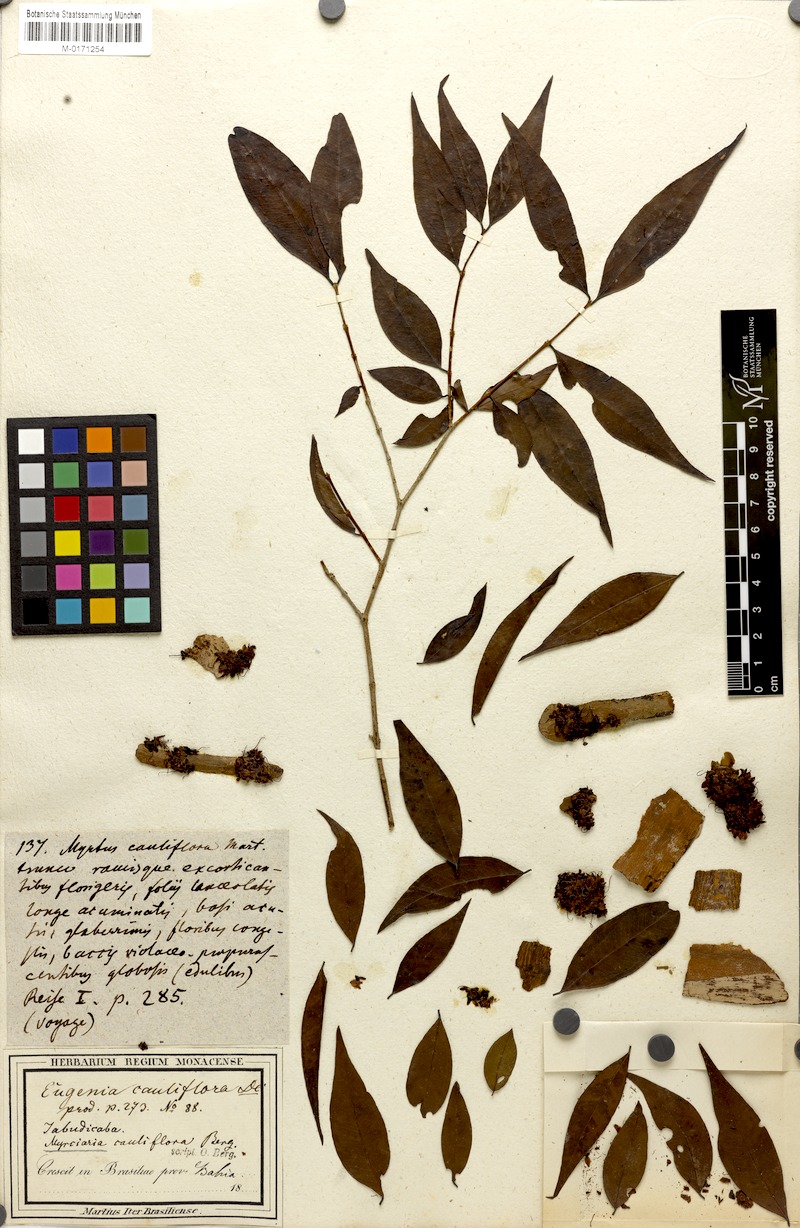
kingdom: Plantae
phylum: Tracheophyta
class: Magnoliopsida
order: Myrtales
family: Myrtaceae
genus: Plinia
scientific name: Plinia cauliflora
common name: Brazilian grapetree
